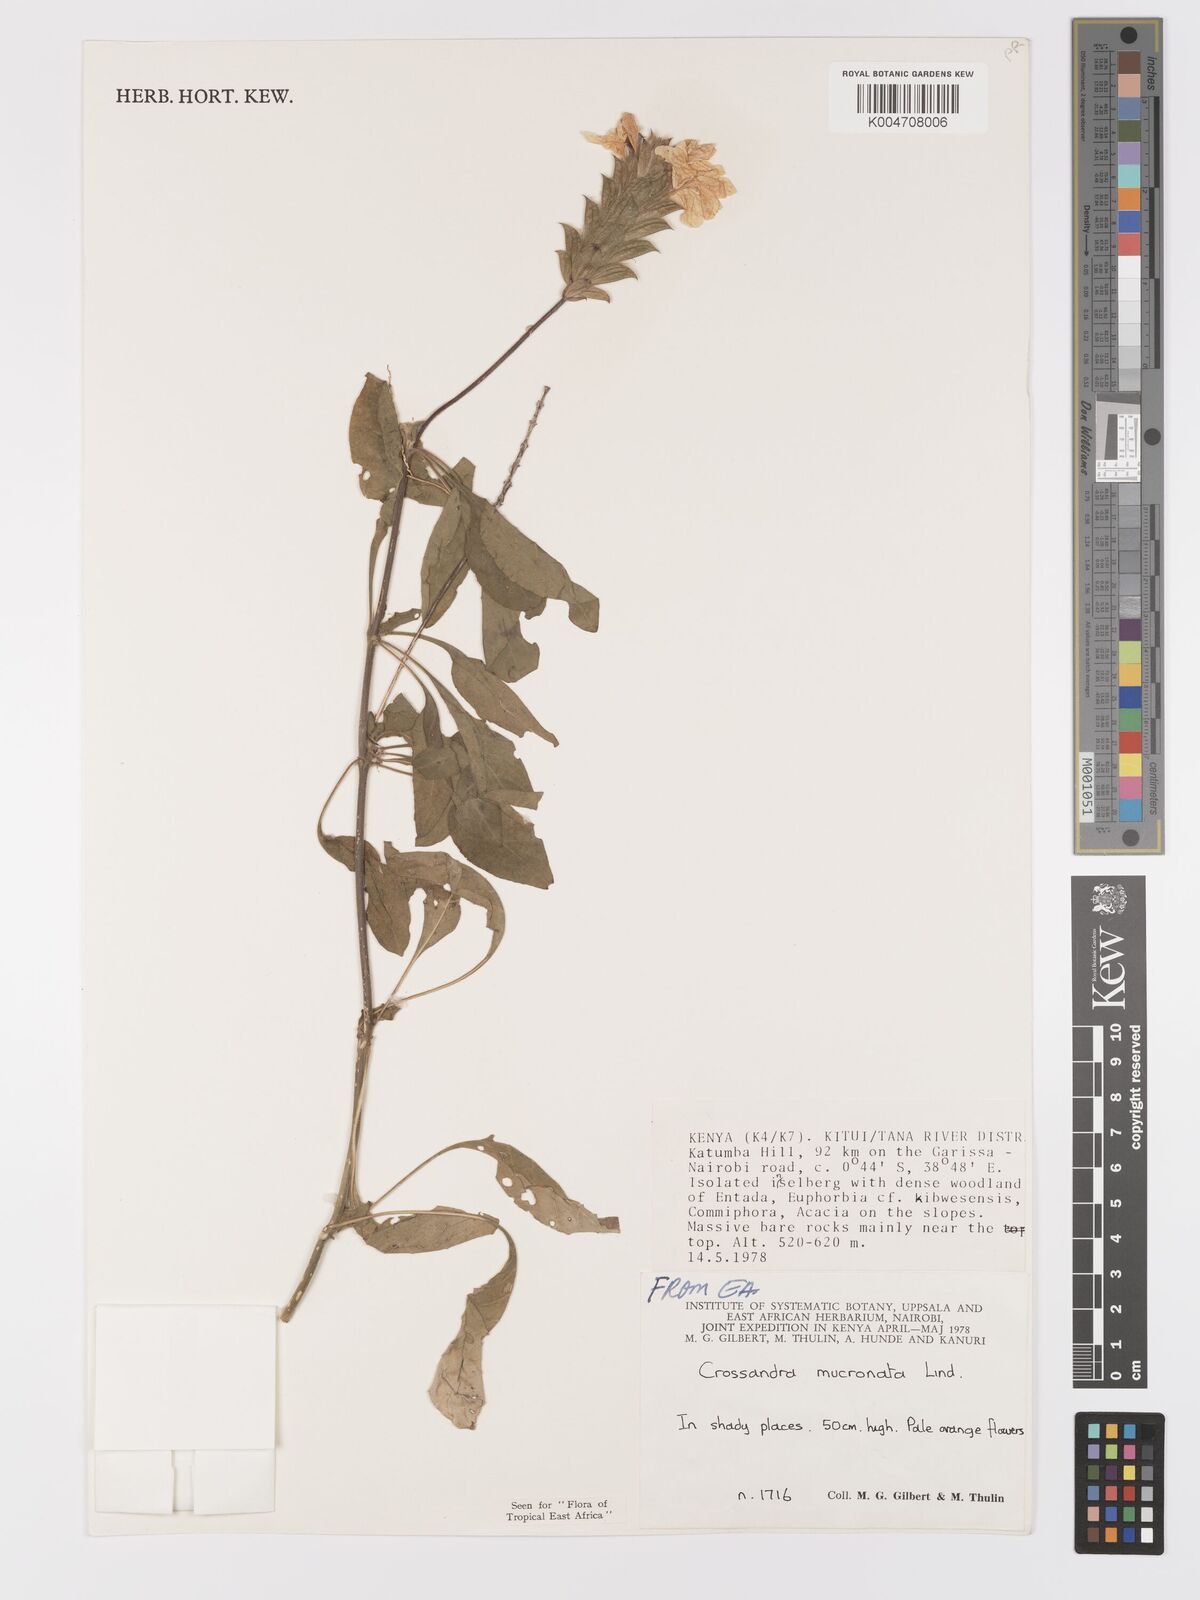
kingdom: Plantae
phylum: Tracheophyta
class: Magnoliopsida
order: Lamiales
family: Acanthaceae
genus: Crossandra
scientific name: Crossandra mucronata
